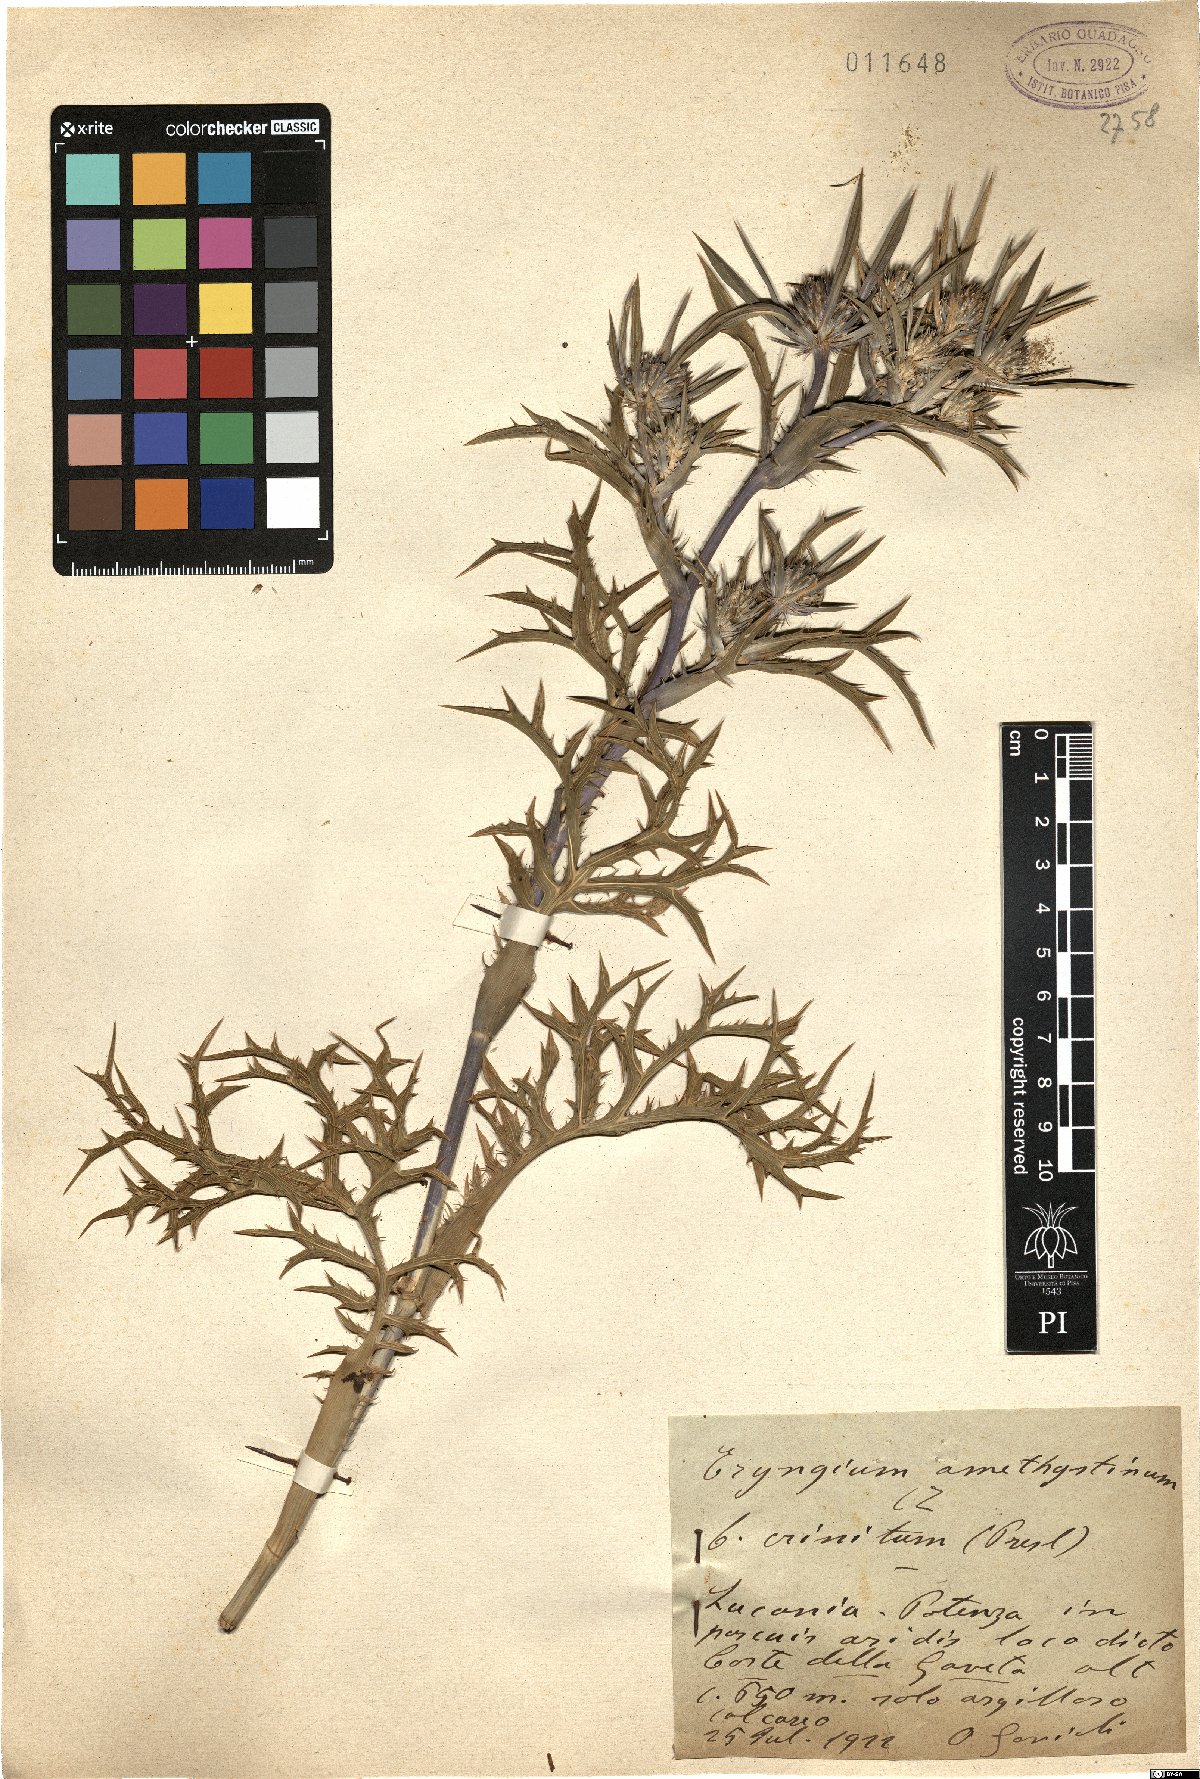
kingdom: Plantae
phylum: Tracheophyta
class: Magnoliopsida
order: Apiales
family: Apiaceae
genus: Eryngium
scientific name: Eryngium amethystinum
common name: Amethyst eryngo
